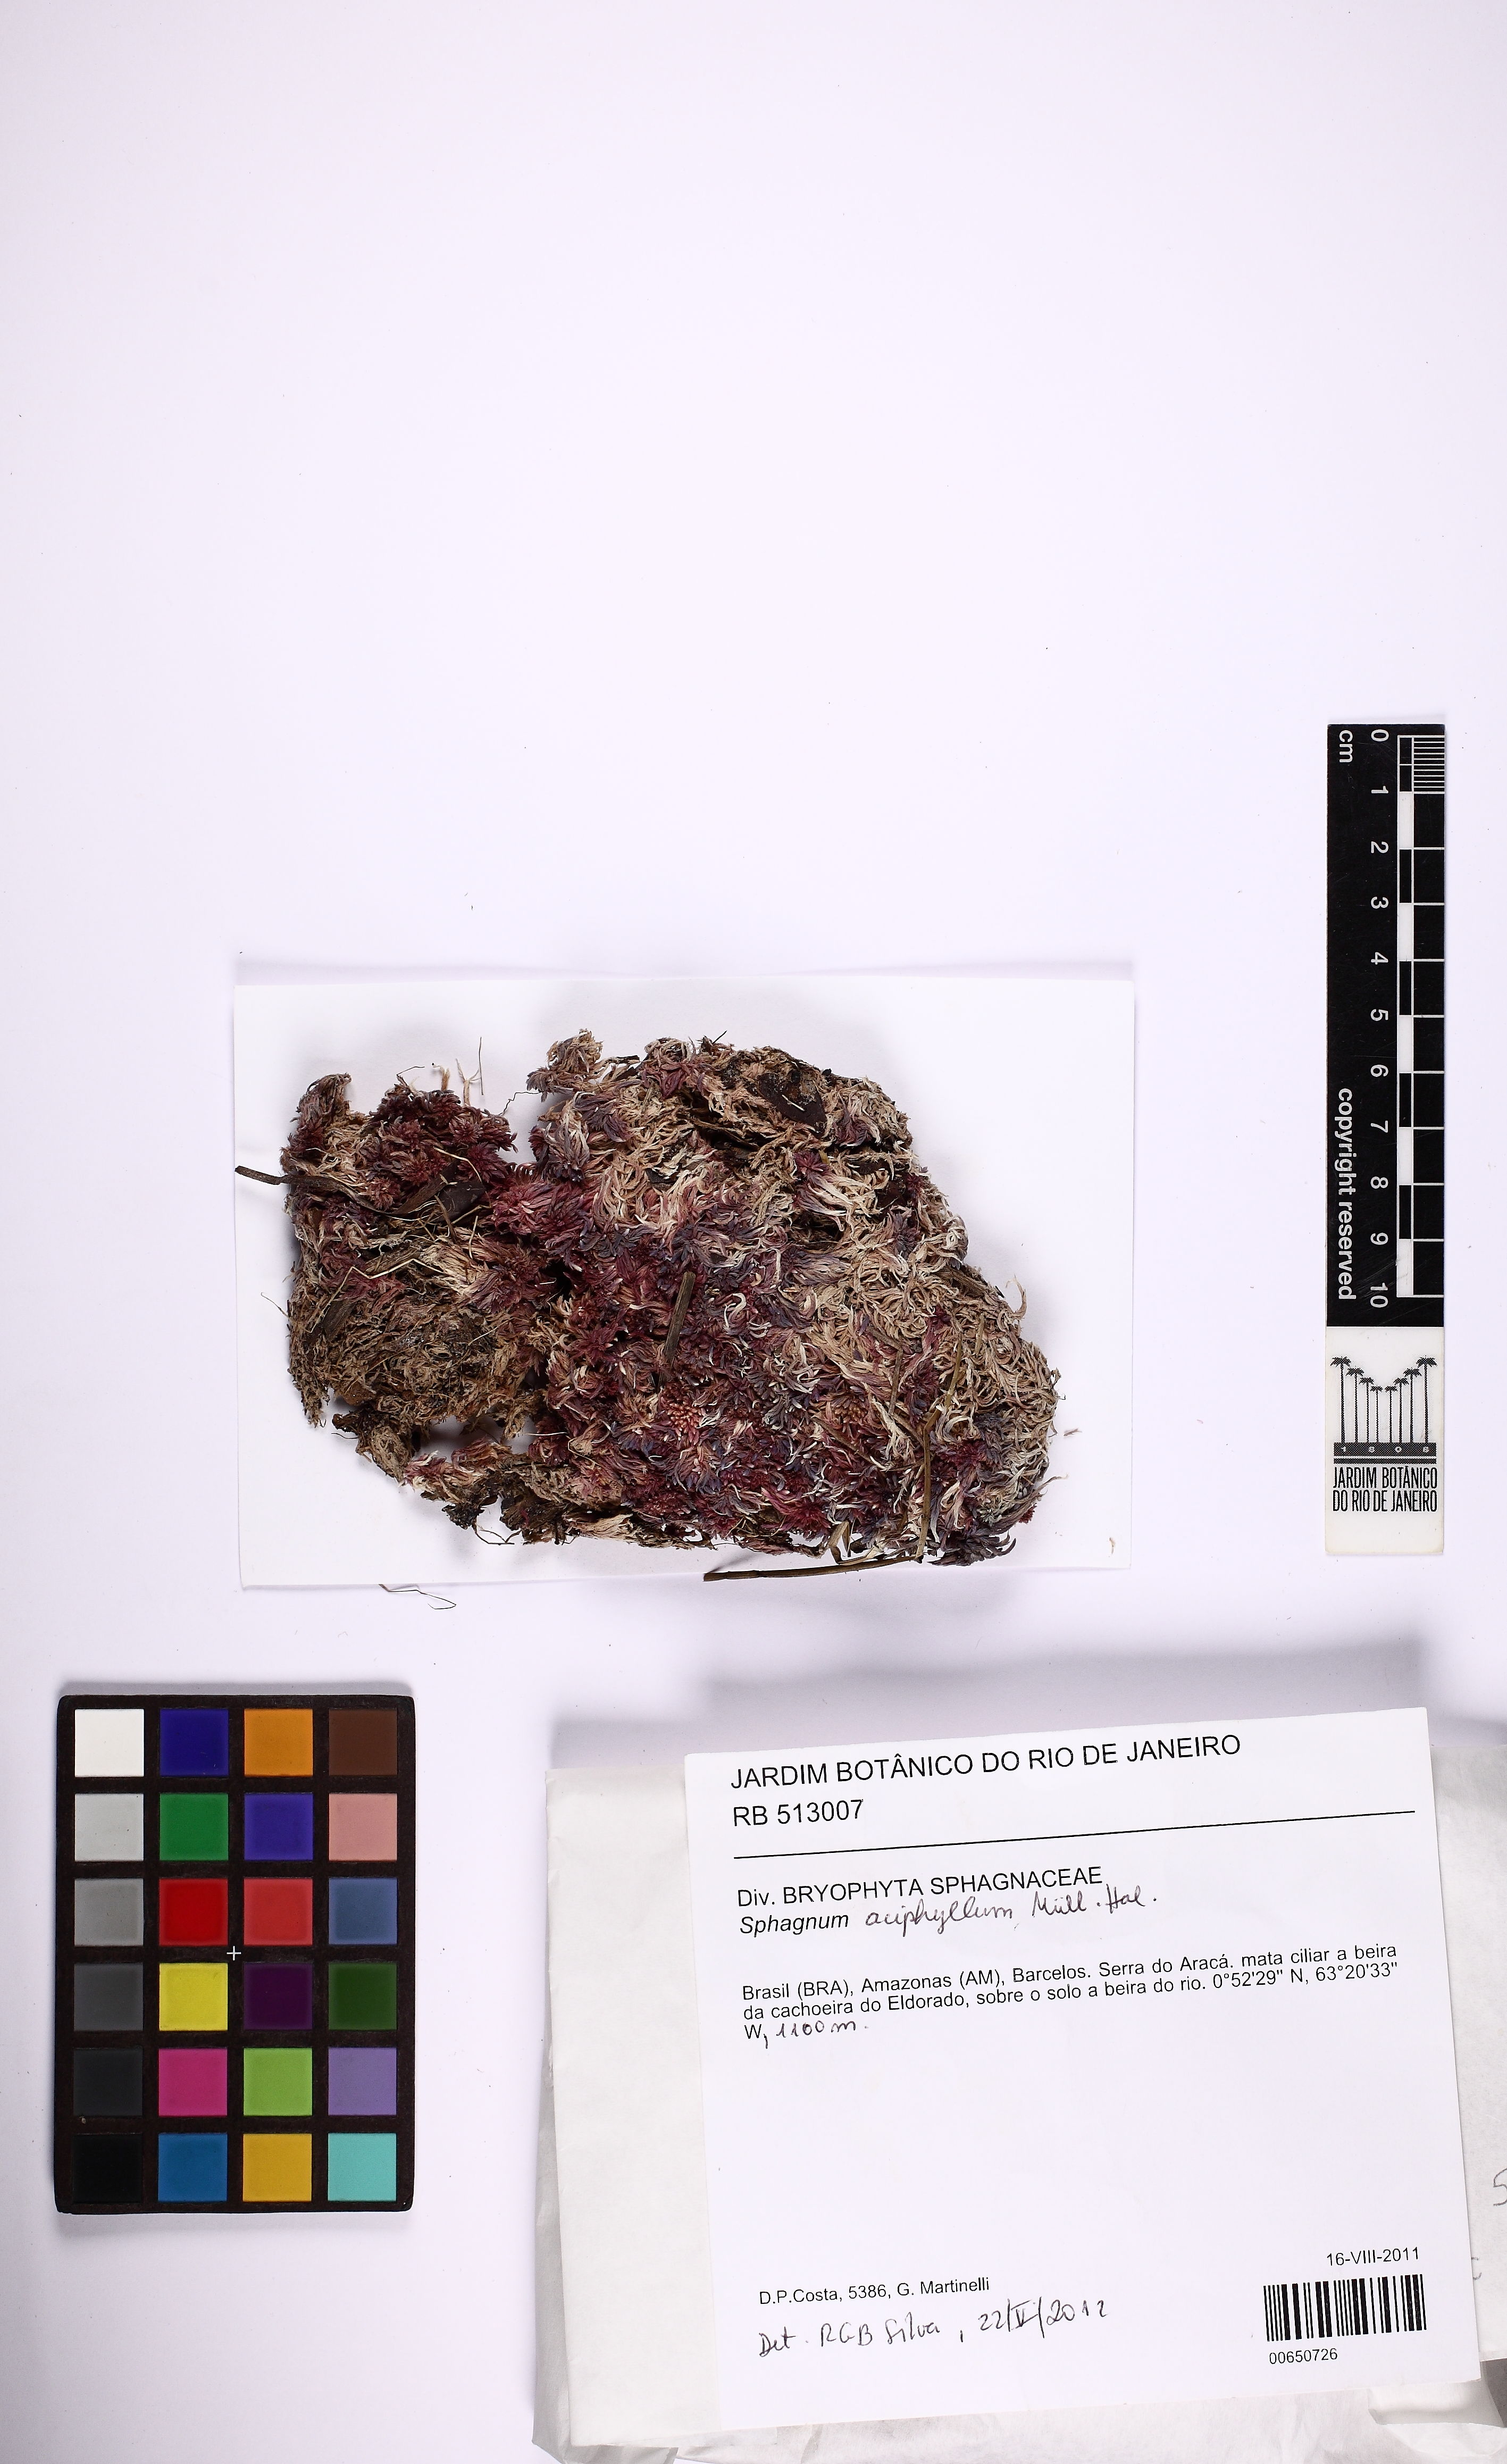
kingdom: Plantae
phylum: Bryophyta
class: Sphagnopsida
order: Sphagnales
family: Sphagnaceae
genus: Sphagnum
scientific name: Sphagnum aciphyllum
